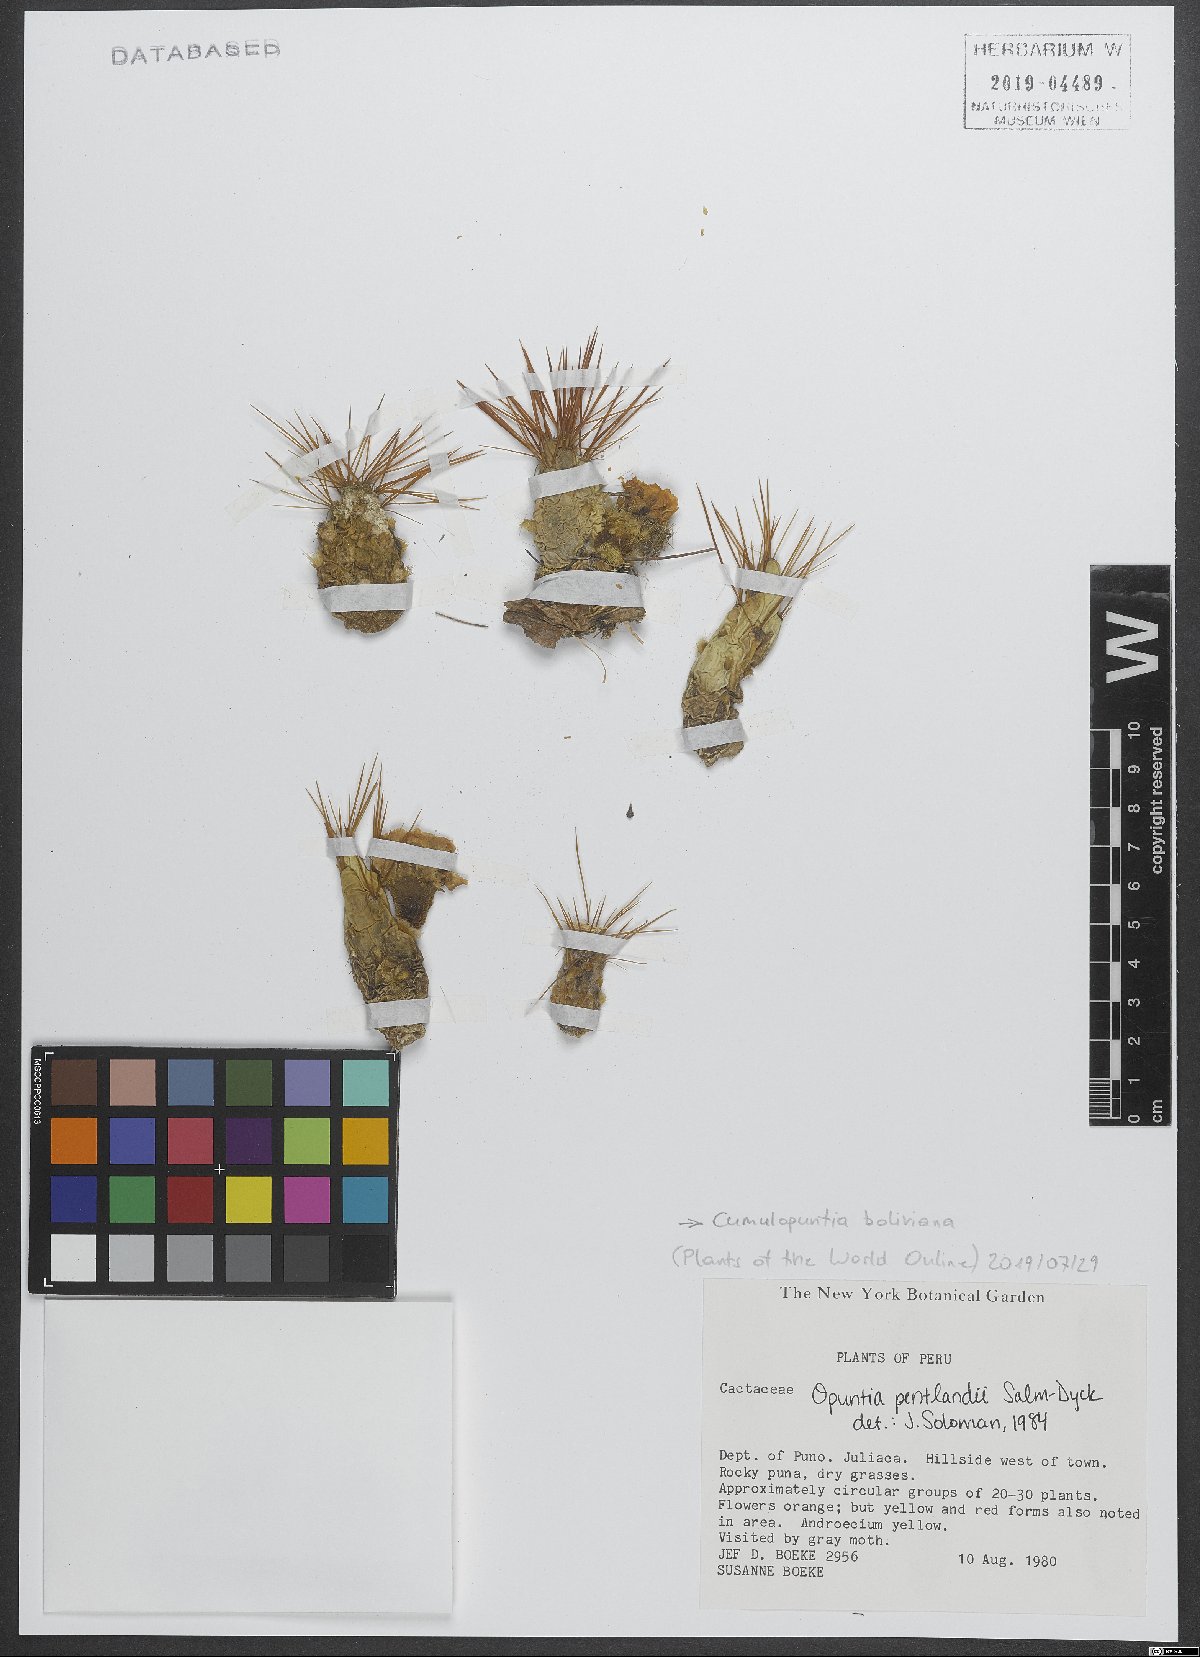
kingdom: Plantae
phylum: Tracheophyta
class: Magnoliopsida
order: Caryophyllales
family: Cactaceae
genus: Cumulopuntia
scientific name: Cumulopuntia boliviana
